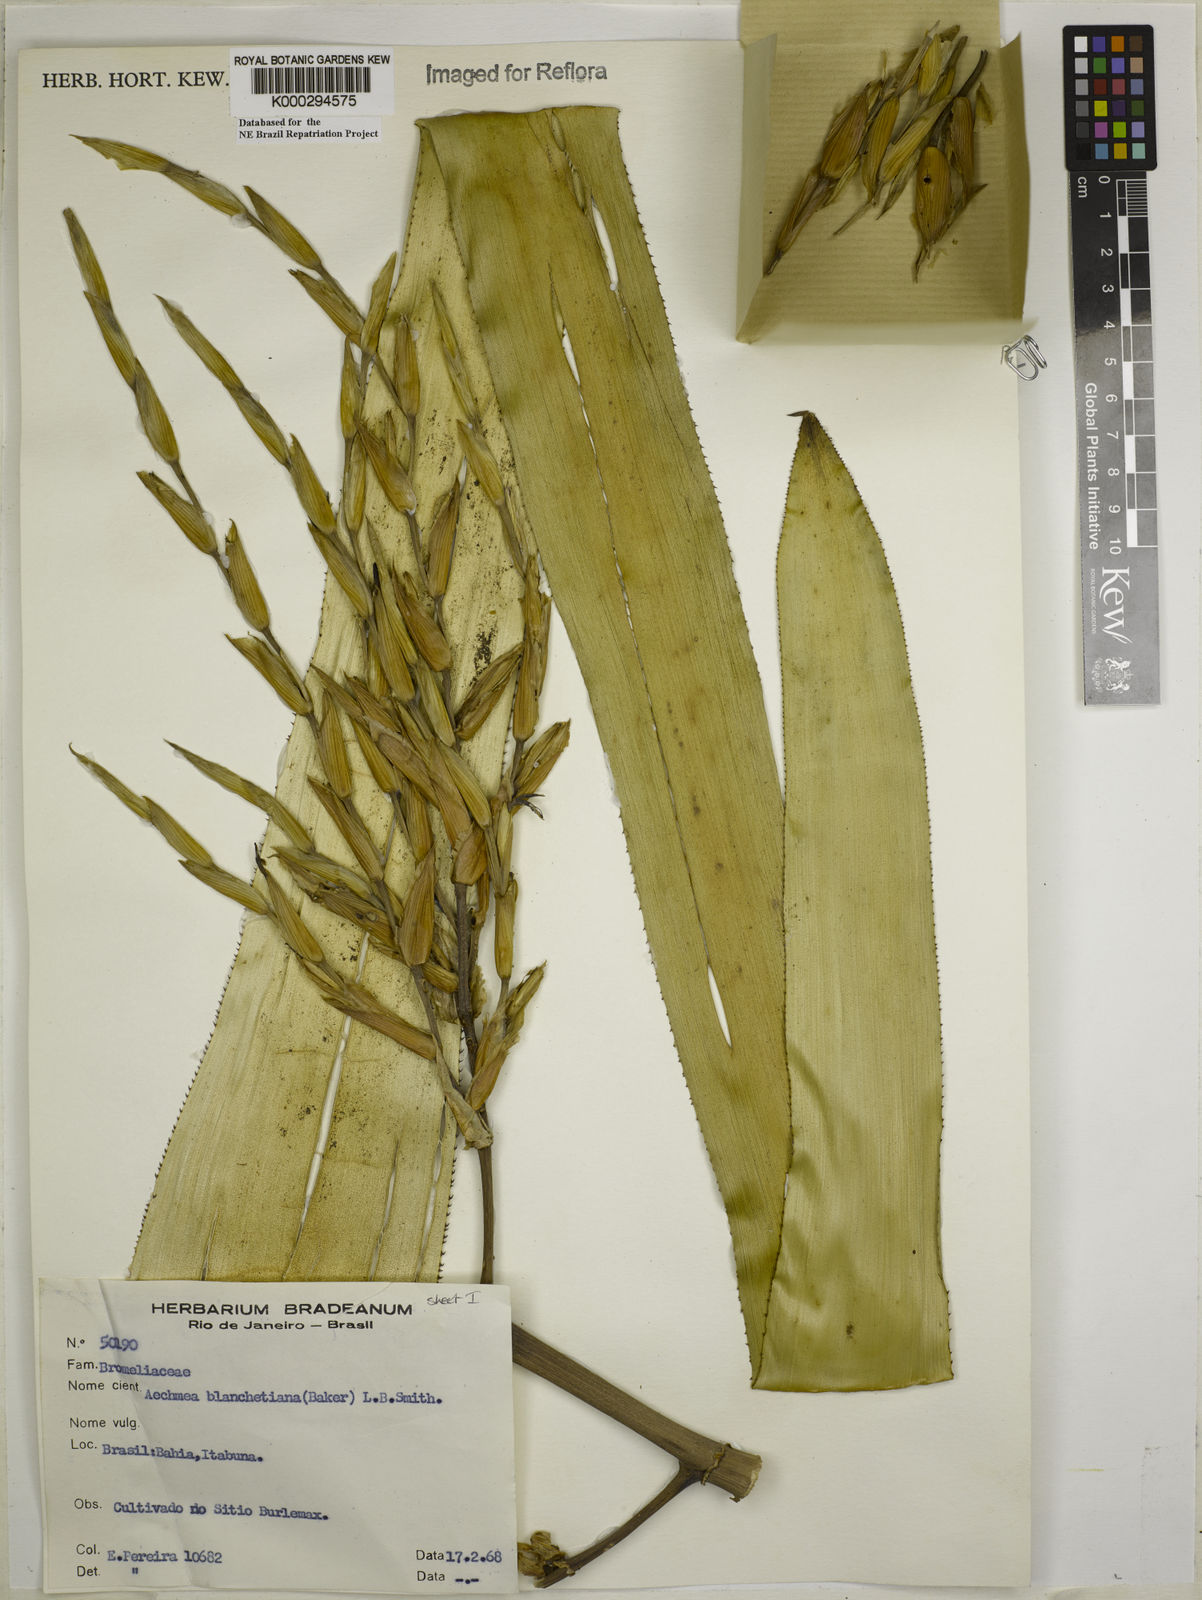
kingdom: Plantae
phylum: Tracheophyta
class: Liliopsida
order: Poales
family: Bromeliaceae
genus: Aechmea
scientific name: Aechmea blanchetiana
